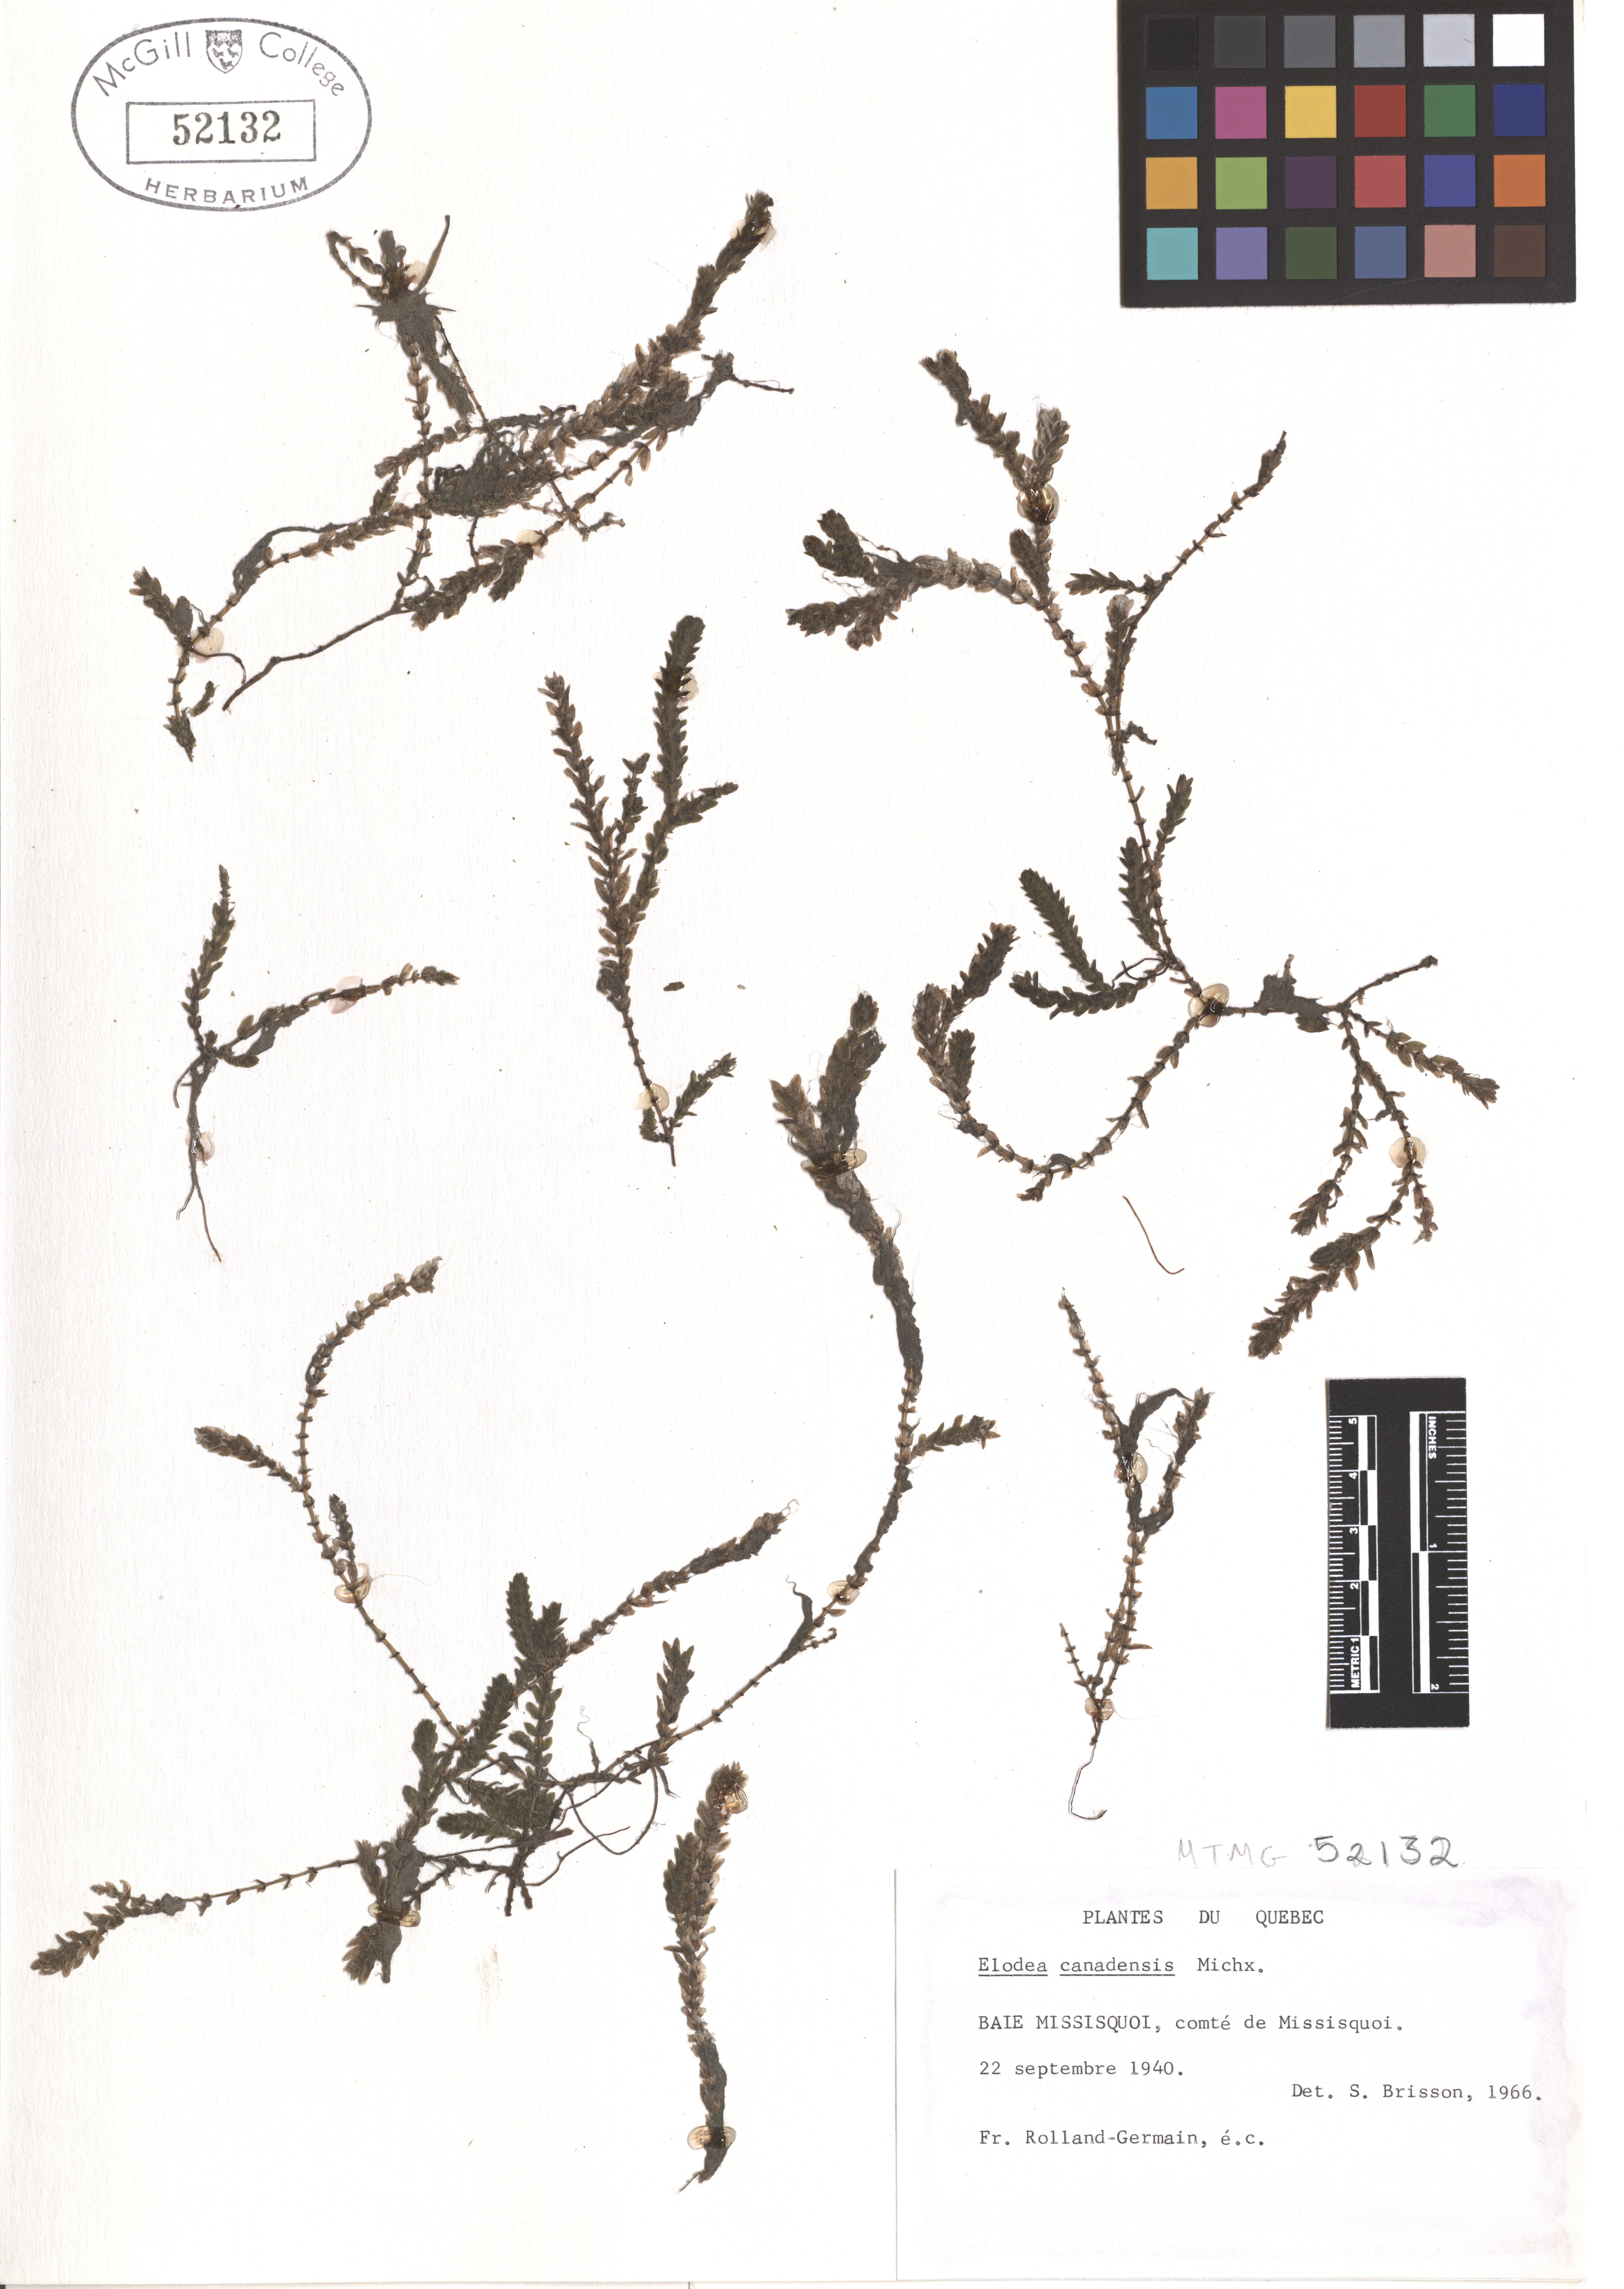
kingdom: Plantae
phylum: Tracheophyta
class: Liliopsida
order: Alismatales
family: Hydrocharitaceae
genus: Elodea
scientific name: Elodea canadensis
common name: Canadian waterweed
